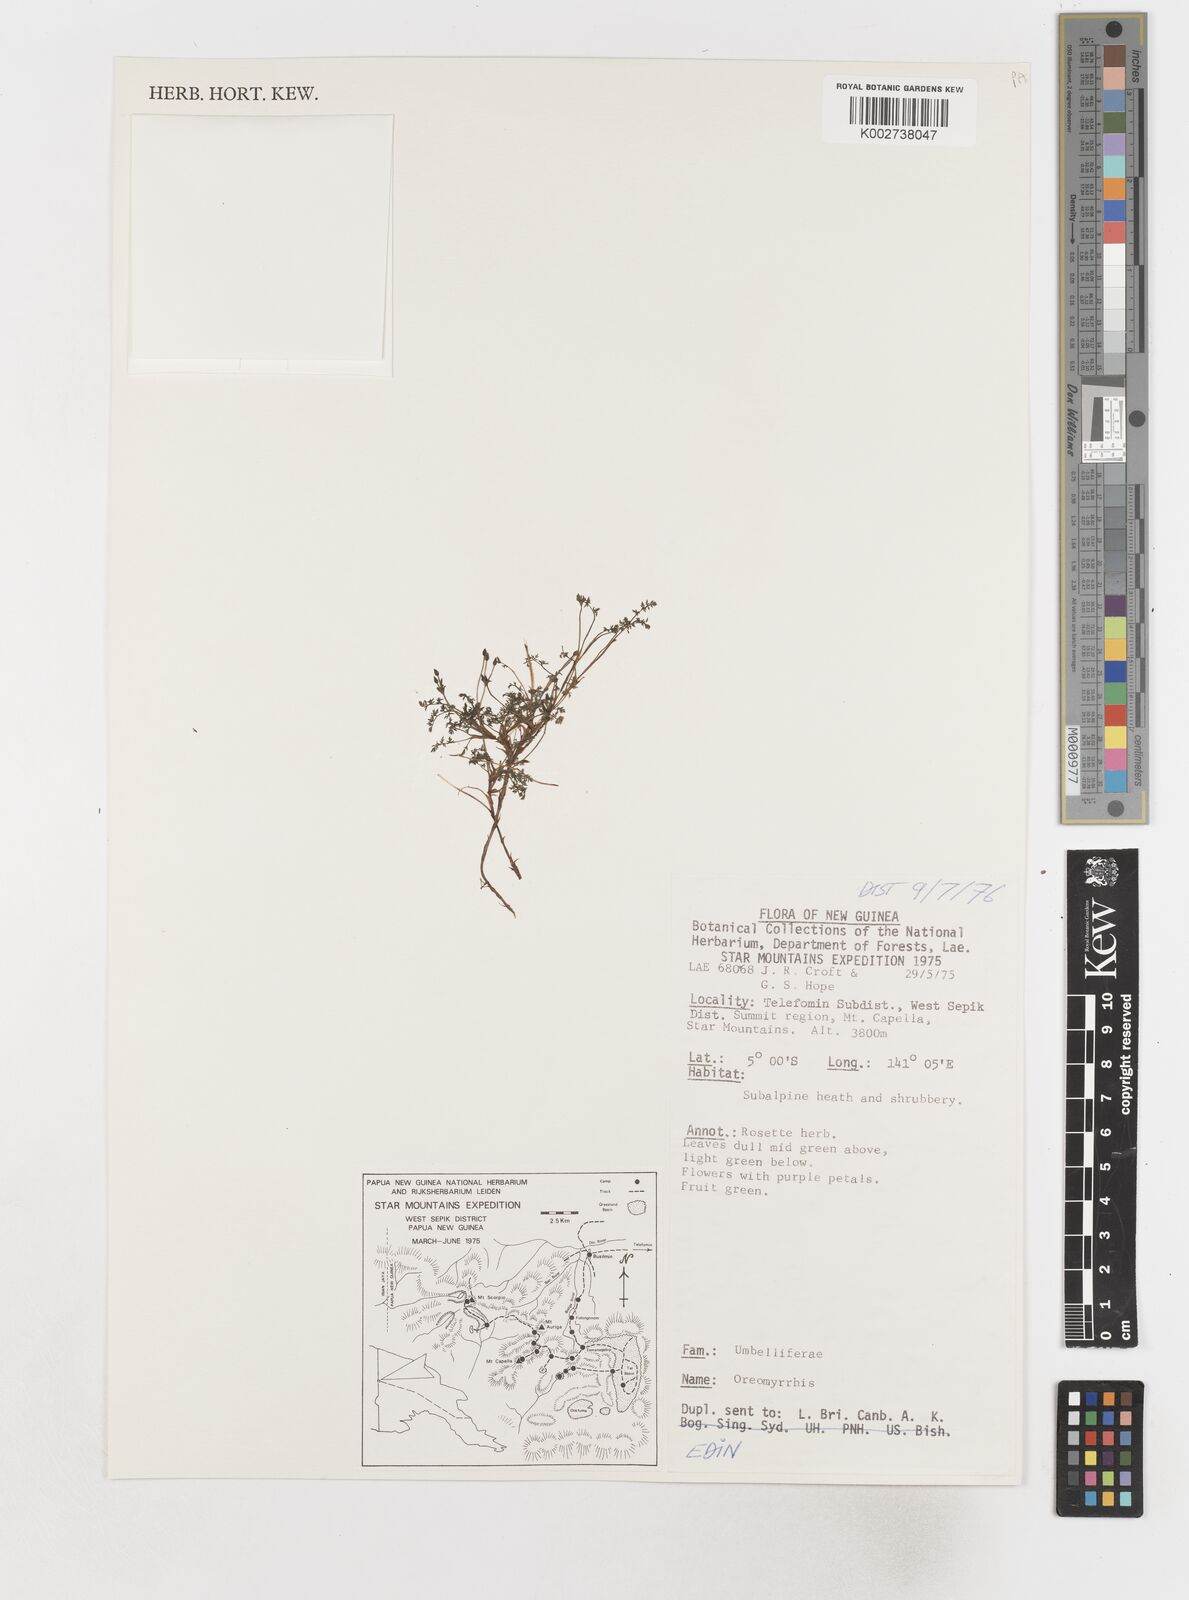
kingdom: Plantae
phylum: Tracheophyta
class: Magnoliopsida
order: Apiales
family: Apiaceae
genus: Chaerophyllum
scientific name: Chaerophyllum pumilum
